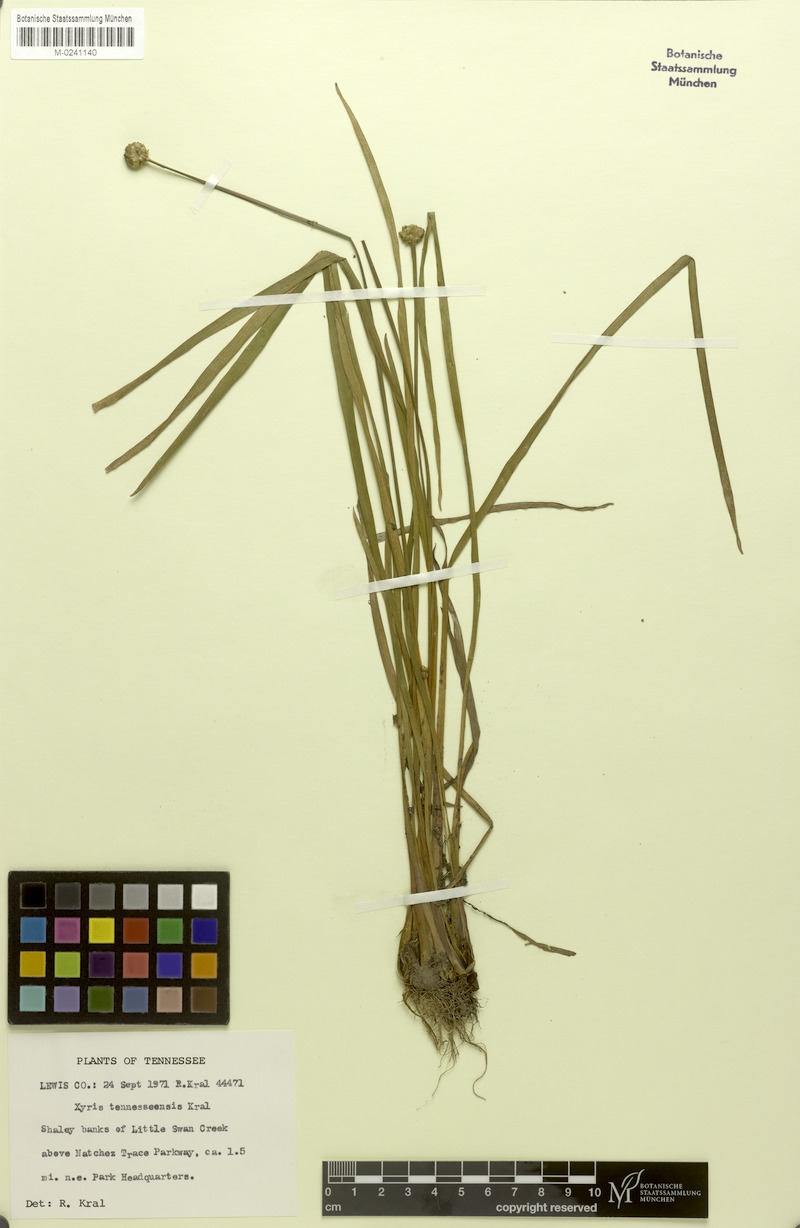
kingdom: Plantae
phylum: Tracheophyta
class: Liliopsida
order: Poales
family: Xyridaceae
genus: Xyris
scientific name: Xyris tennesseensis
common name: Tennessee yellow-eyed-grass
